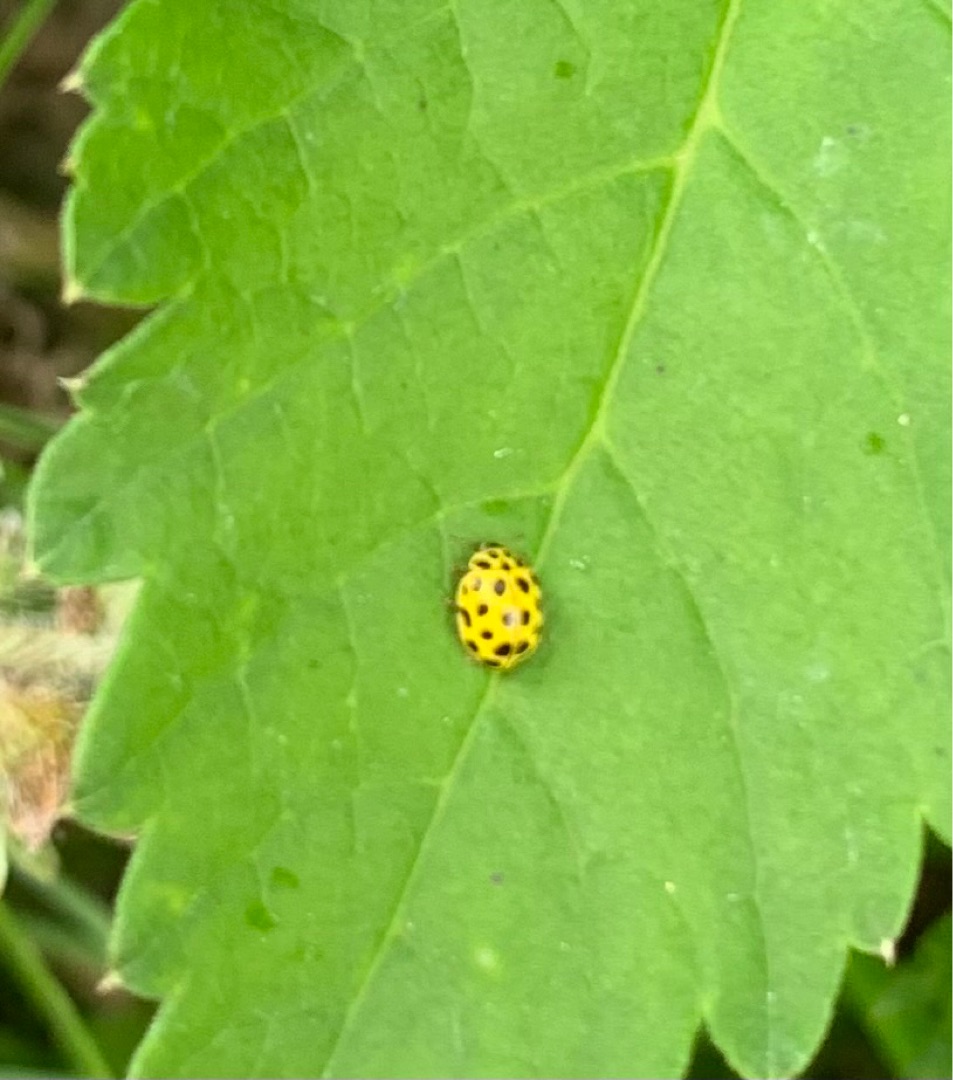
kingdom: Animalia
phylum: Arthropoda
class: Insecta
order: Coleoptera
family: Coccinellidae
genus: Psyllobora
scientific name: Psyllobora vigintiduopunctata
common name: Toogtyveplettet mariehøne
